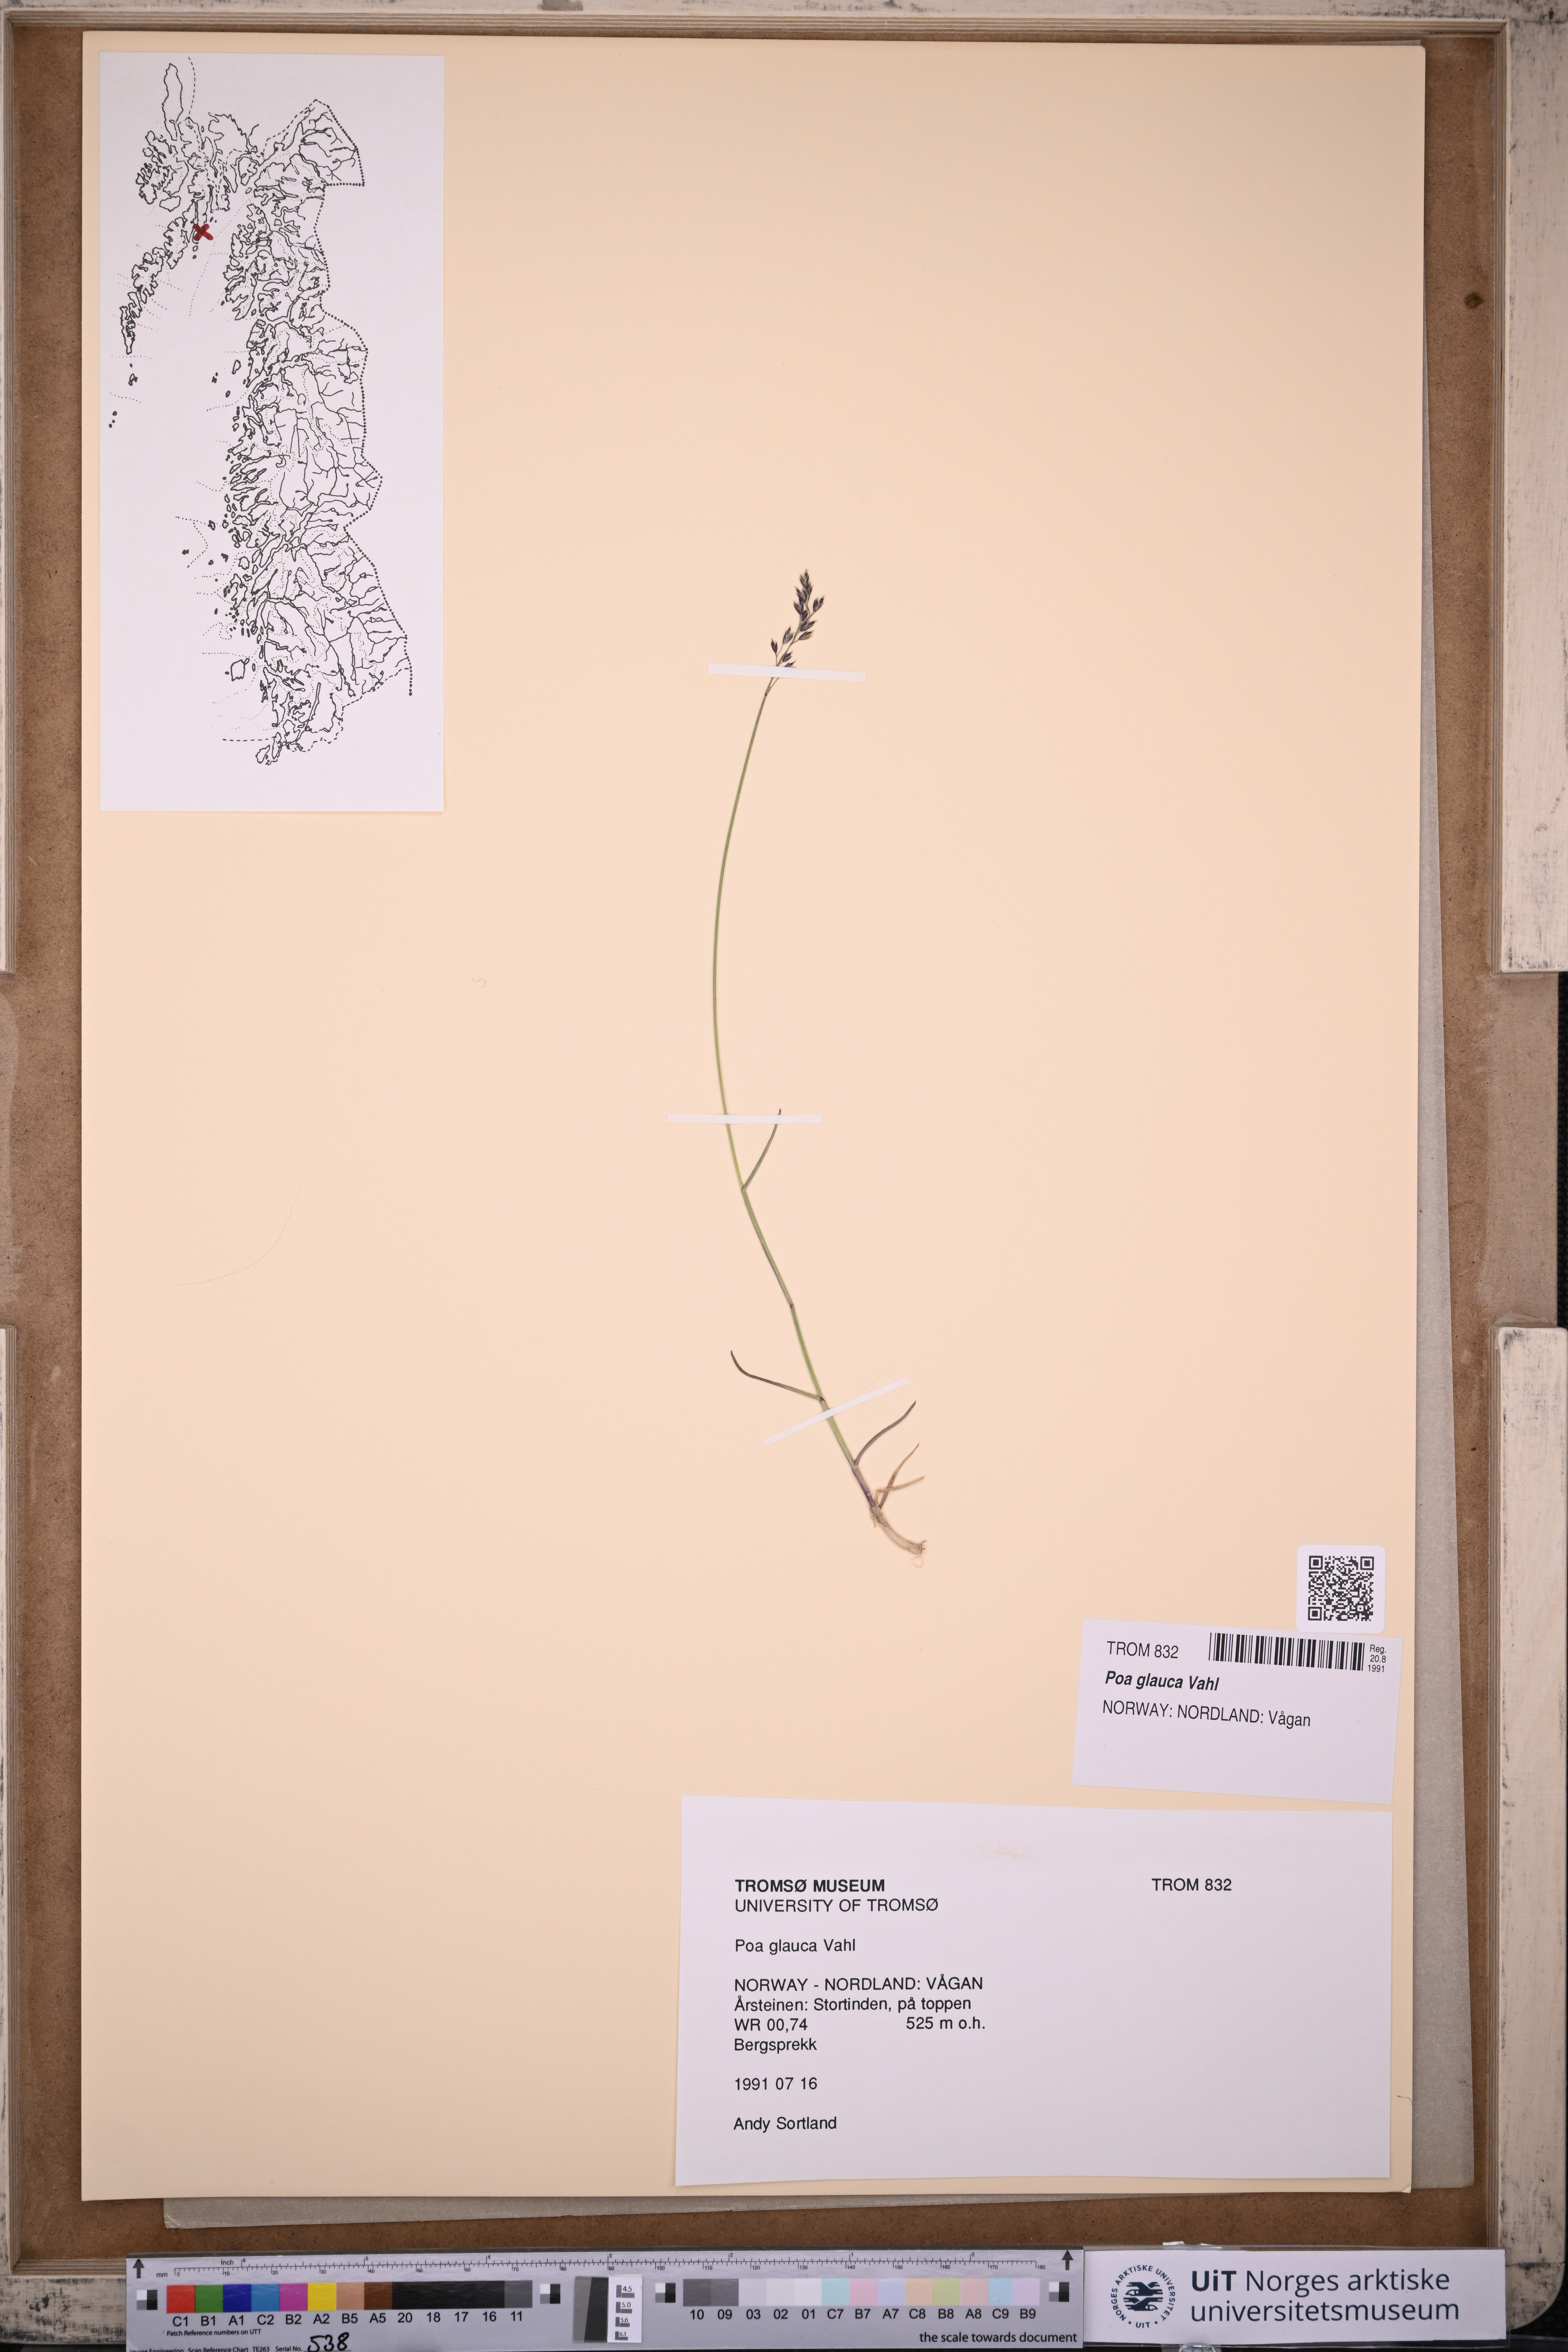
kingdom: Plantae
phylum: Tracheophyta
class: Liliopsida
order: Poales
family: Poaceae
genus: Poa
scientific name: Poa glauca
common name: Glaucous bluegrass
